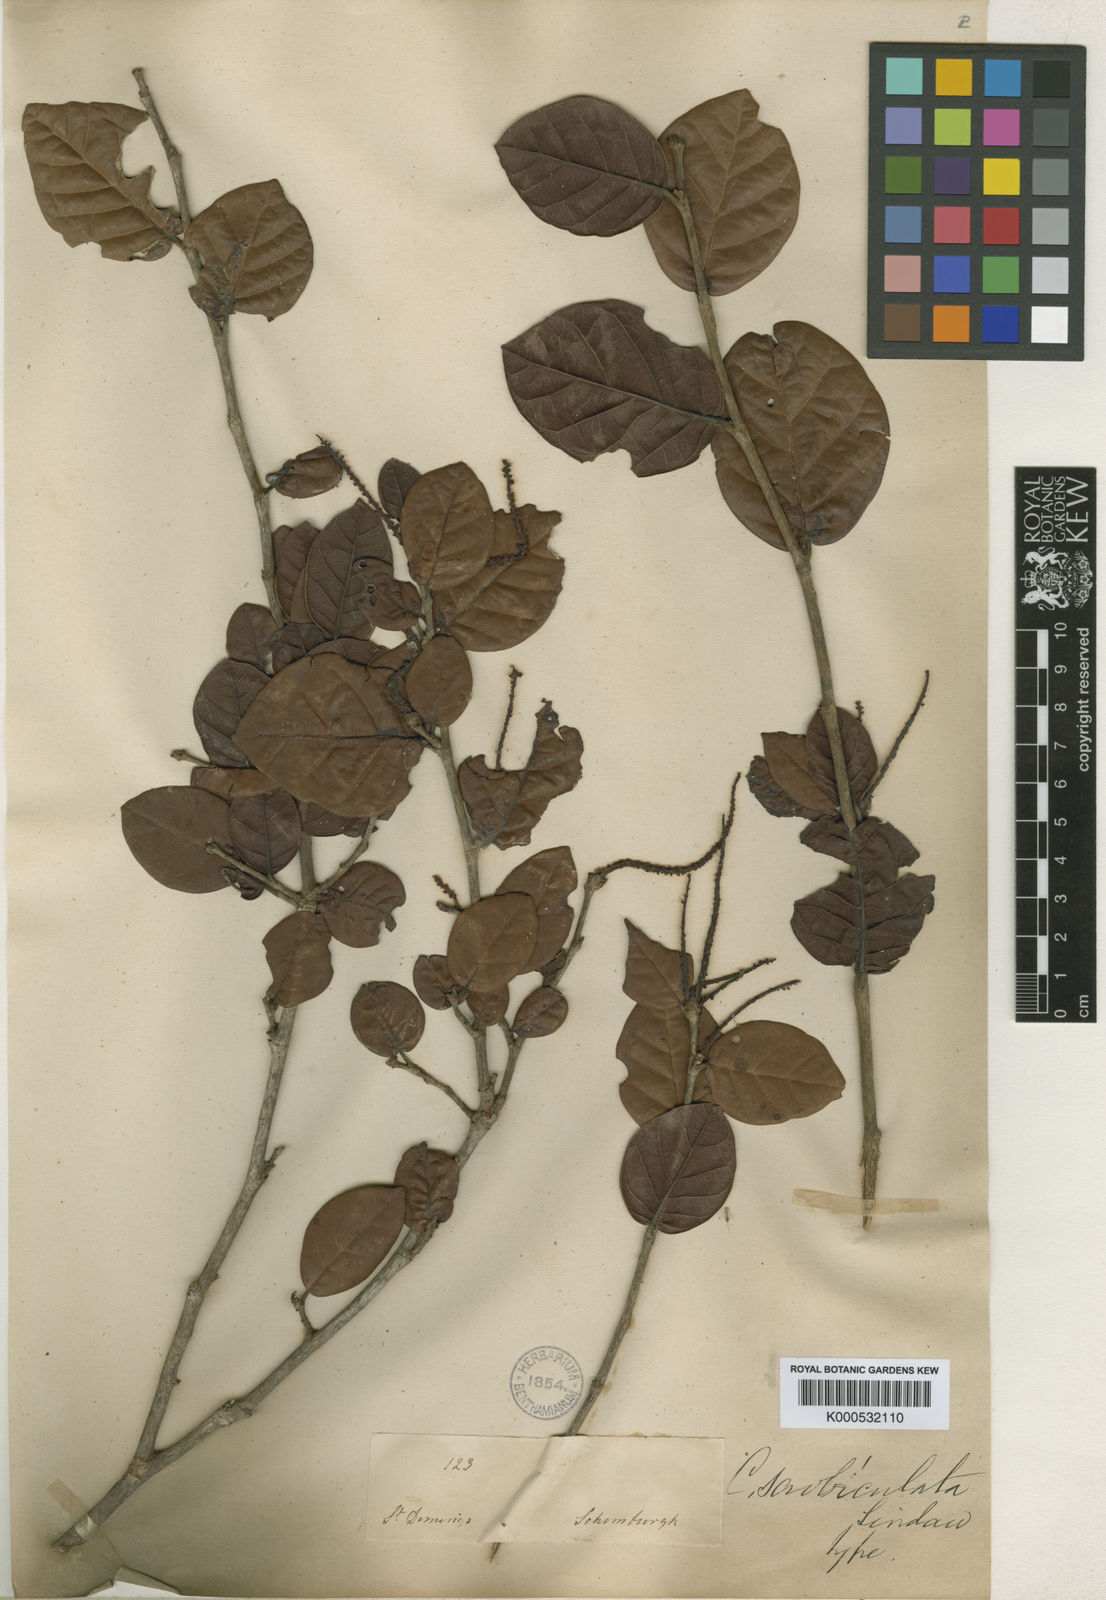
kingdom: Plantae
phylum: Tracheophyta
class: Magnoliopsida
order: Caryophyllales
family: Polygonaceae
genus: Coccoloba
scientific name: Coccoloba wrightii
